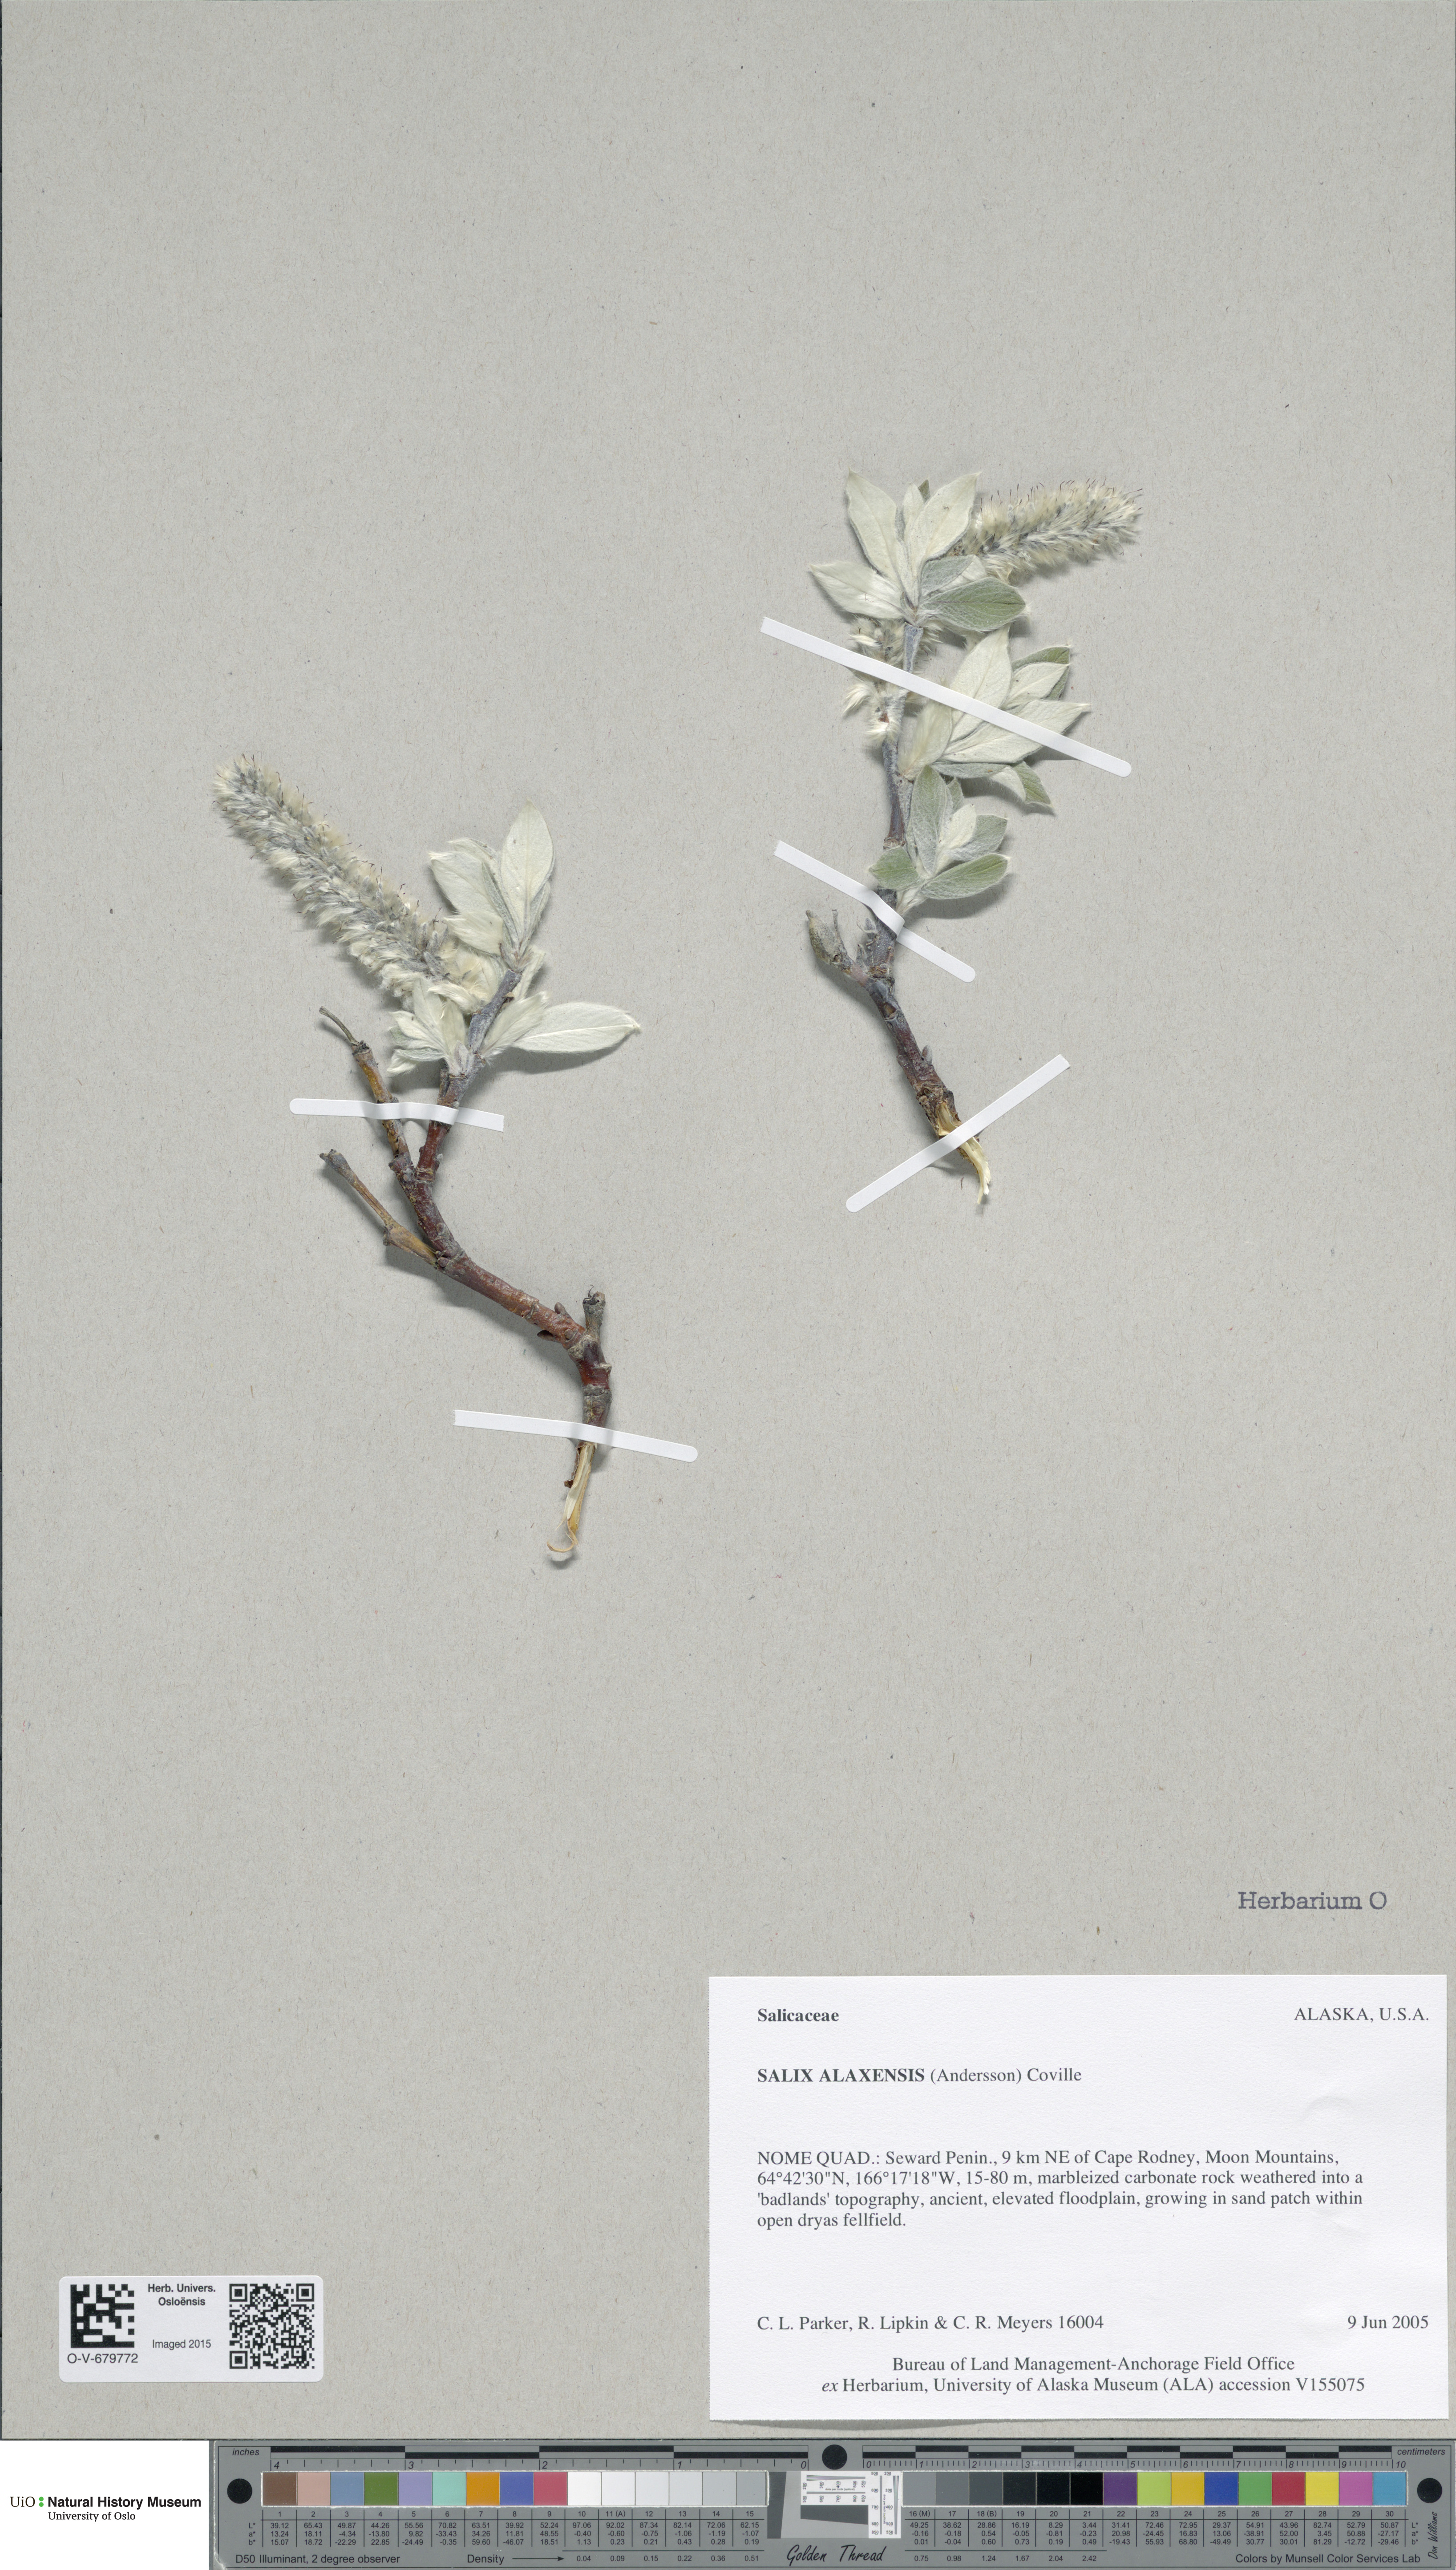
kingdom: Plantae
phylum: Tracheophyta
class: Magnoliopsida
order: Malpighiales
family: Salicaceae
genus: Salix
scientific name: Salix alaxensis
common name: Feltleaf willow
